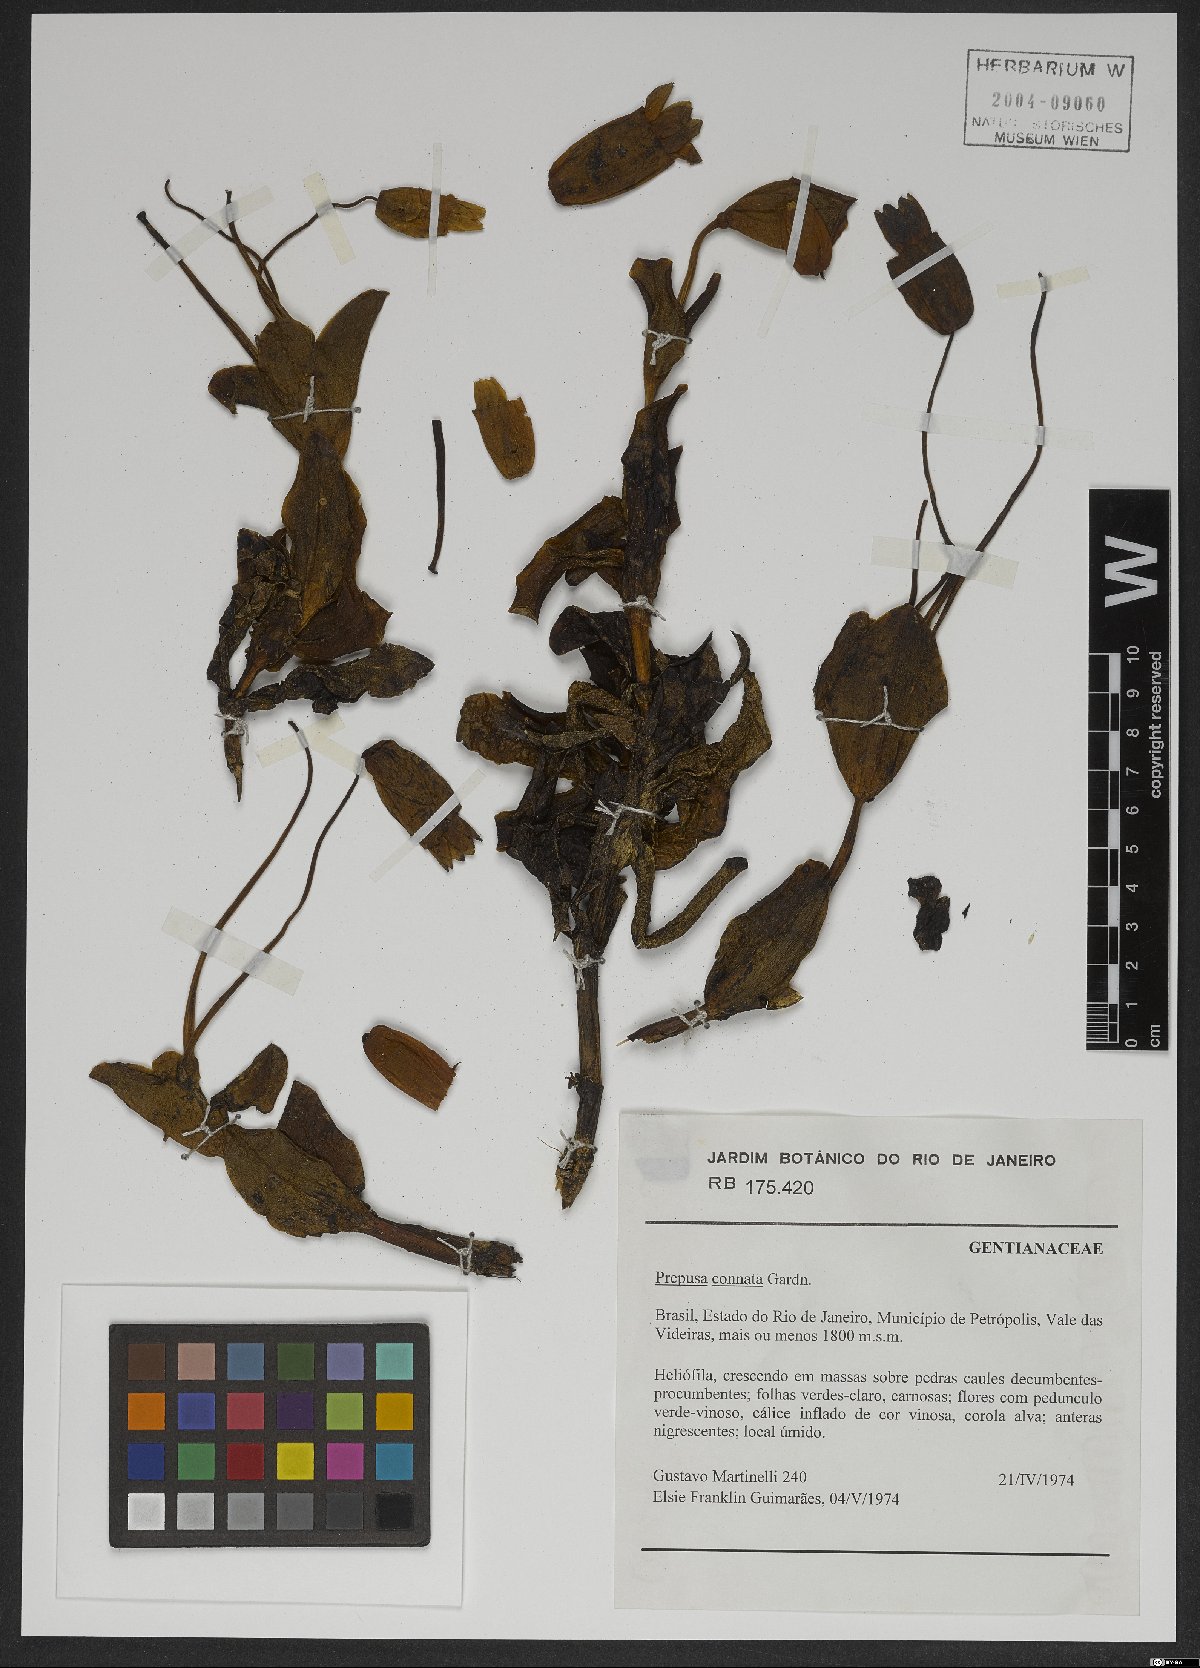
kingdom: Plantae
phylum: Tracheophyta
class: Magnoliopsida
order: Gentianales
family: Gentianaceae
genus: Prepusa
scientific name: Prepusa connata
